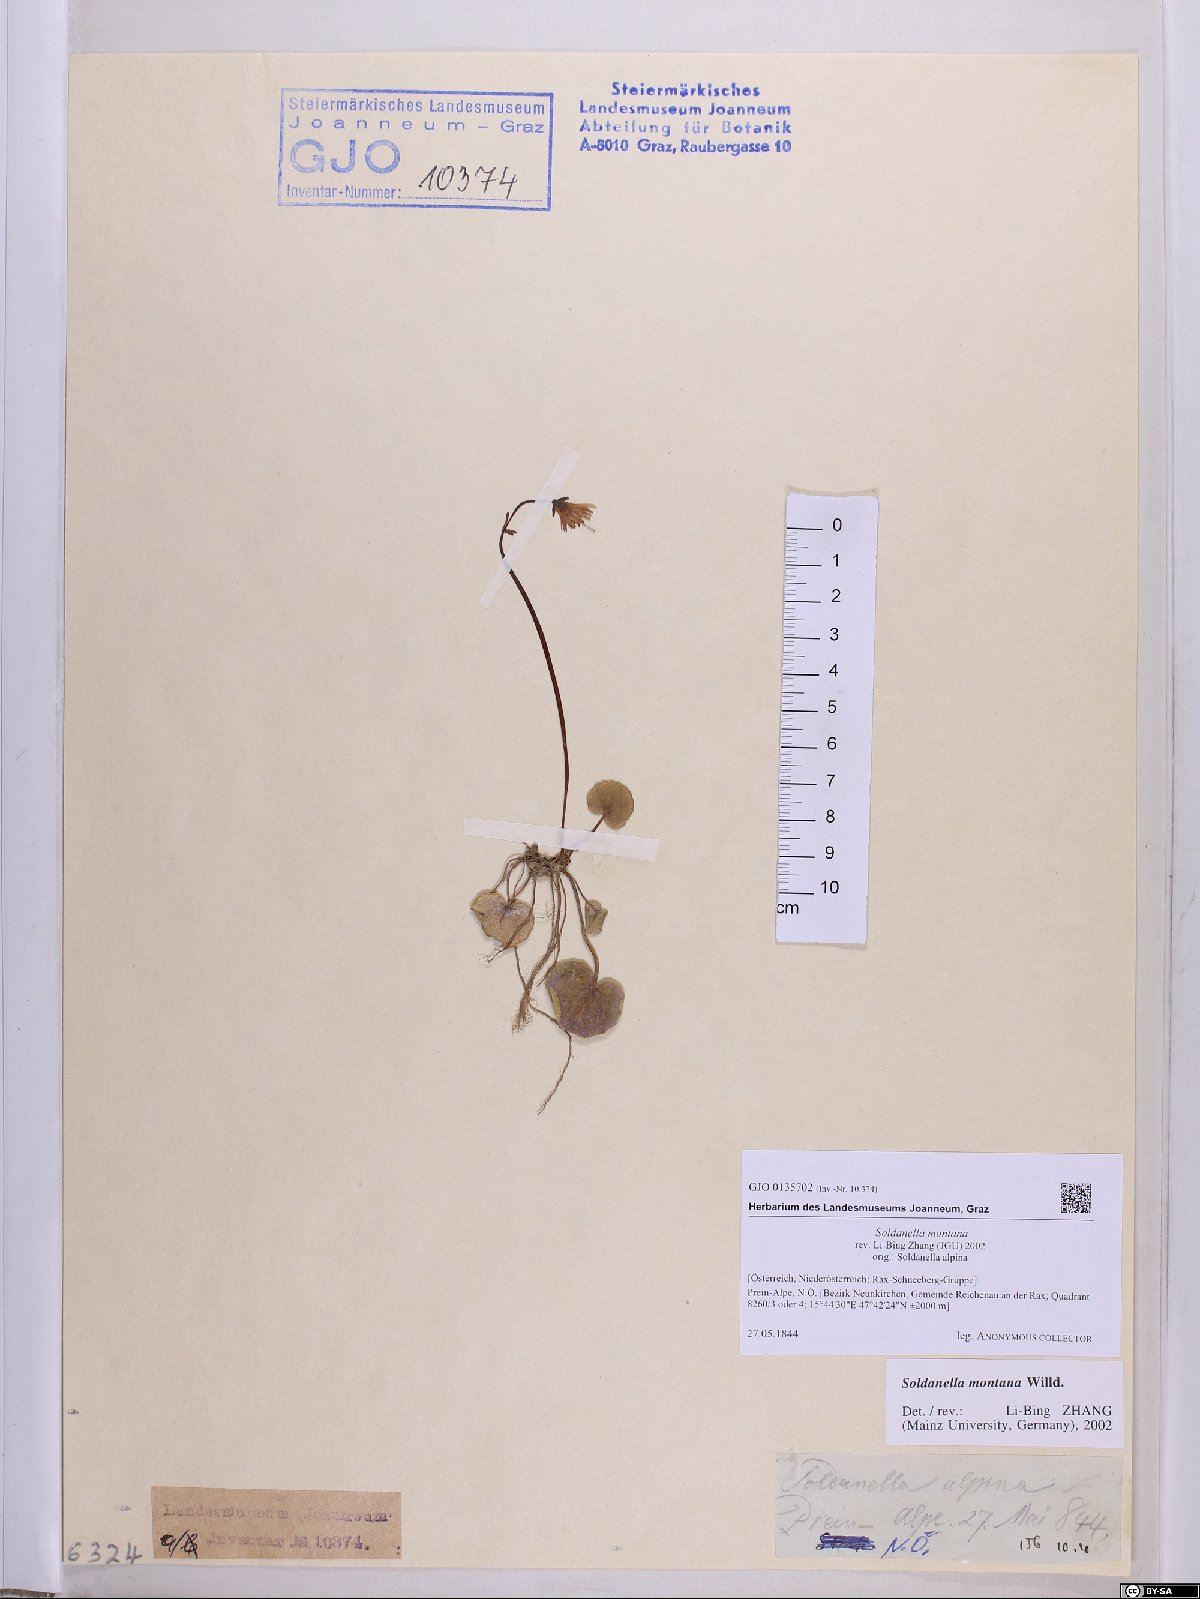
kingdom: Plantae
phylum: Tracheophyta
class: Magnoliopsida
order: Ericales
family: Primulaceae
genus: Soldanella
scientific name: Soldanella montana
